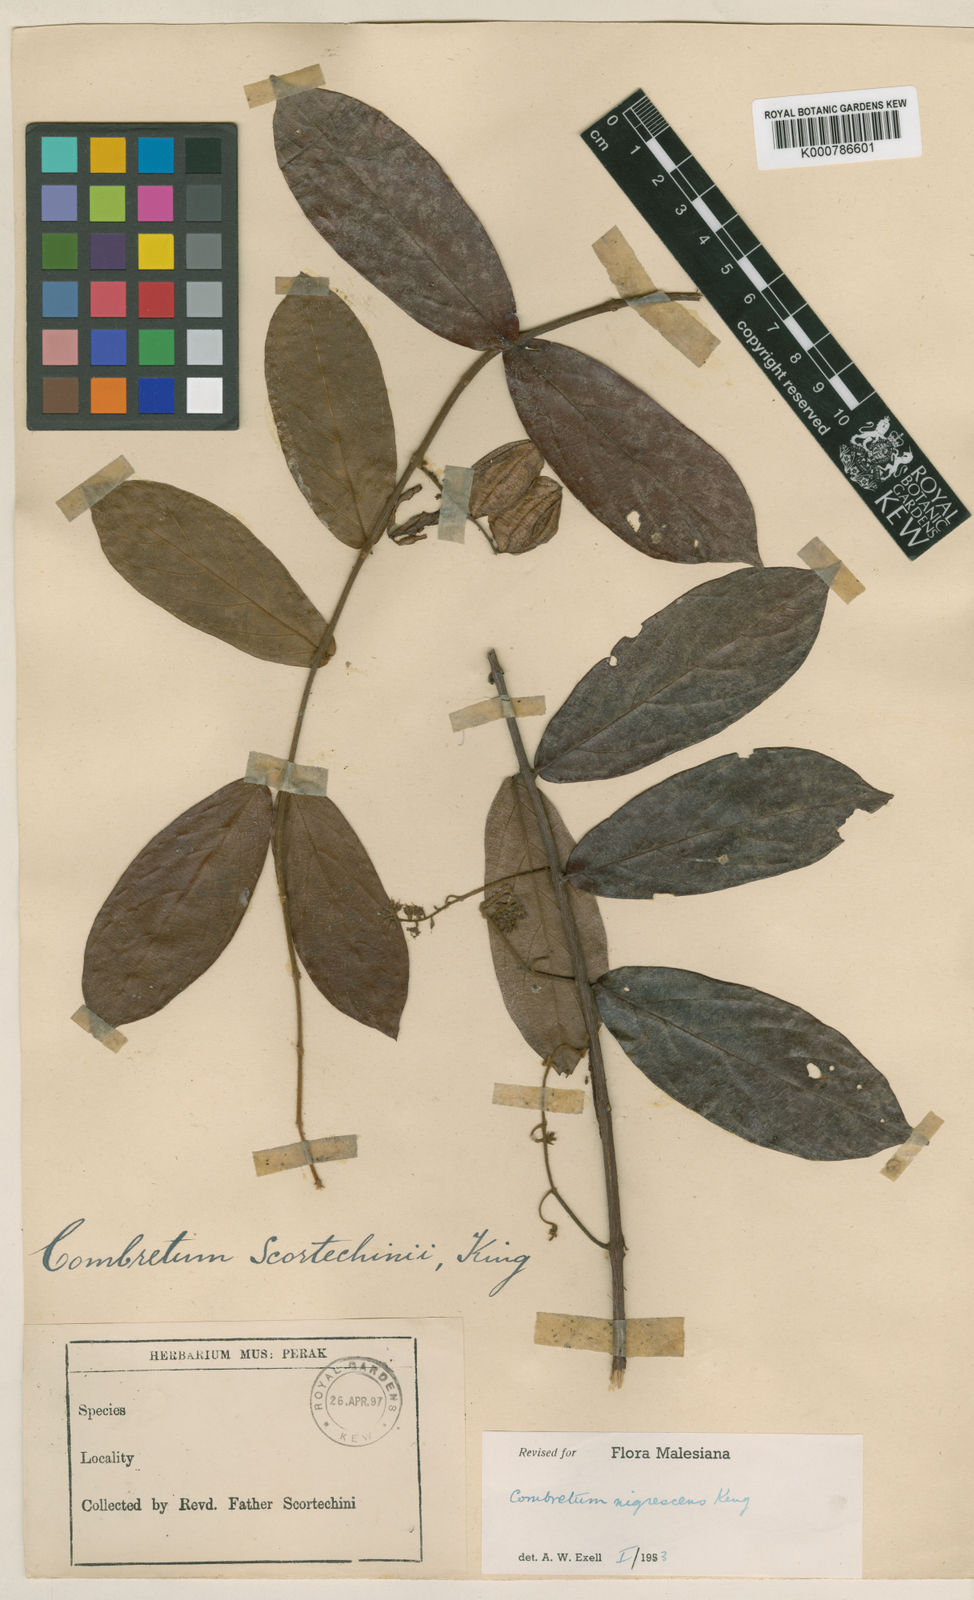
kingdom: Plantae
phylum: Tracheophyta
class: Magnoliopsida
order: Myrtales
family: Combretaceae
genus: Combretum
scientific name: Combretum nigrescens
